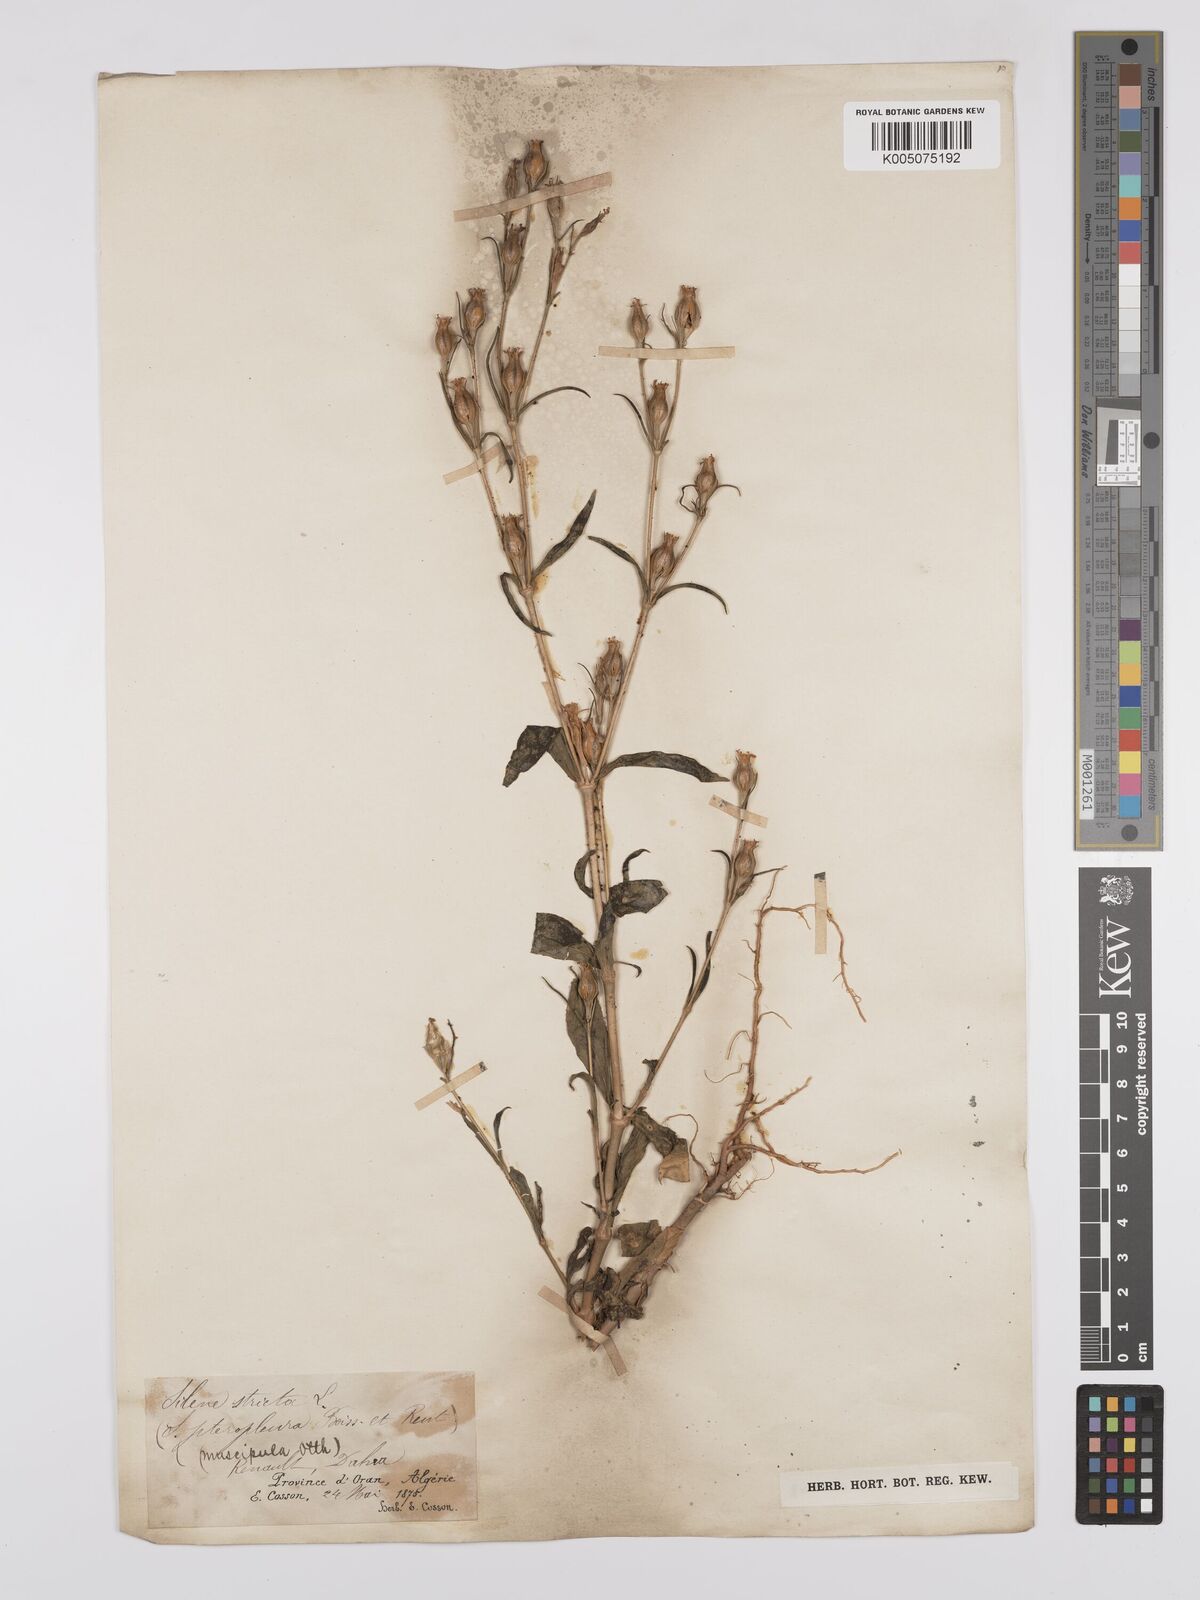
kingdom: Plantae
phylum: Tracheophyta
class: Magnoliopsida
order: Caryophyllales
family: Caryophyllaceae
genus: Silene
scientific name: Silene stricta
